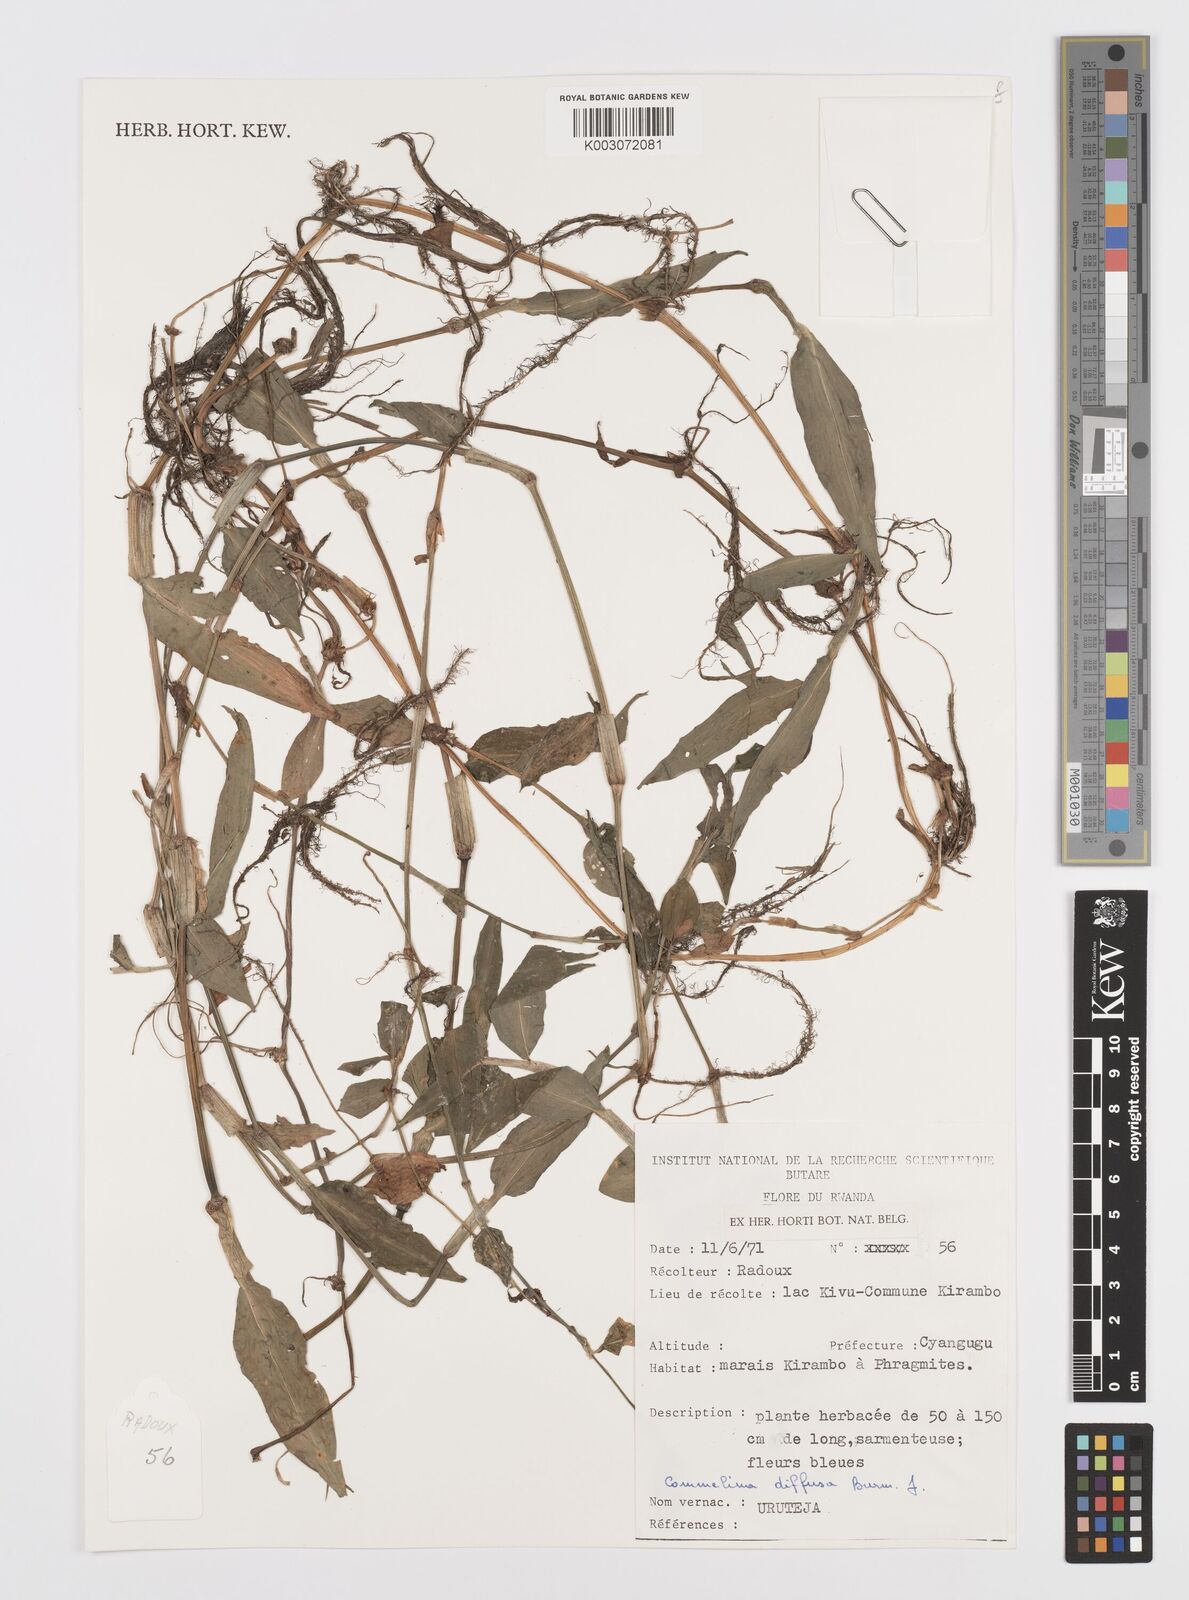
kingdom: Plantae
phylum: Tracheophyta
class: Liliopsida
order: Commelinales
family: Commelinaceae
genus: Commelina
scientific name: Commelina diffusa
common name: Climbing dayflower
